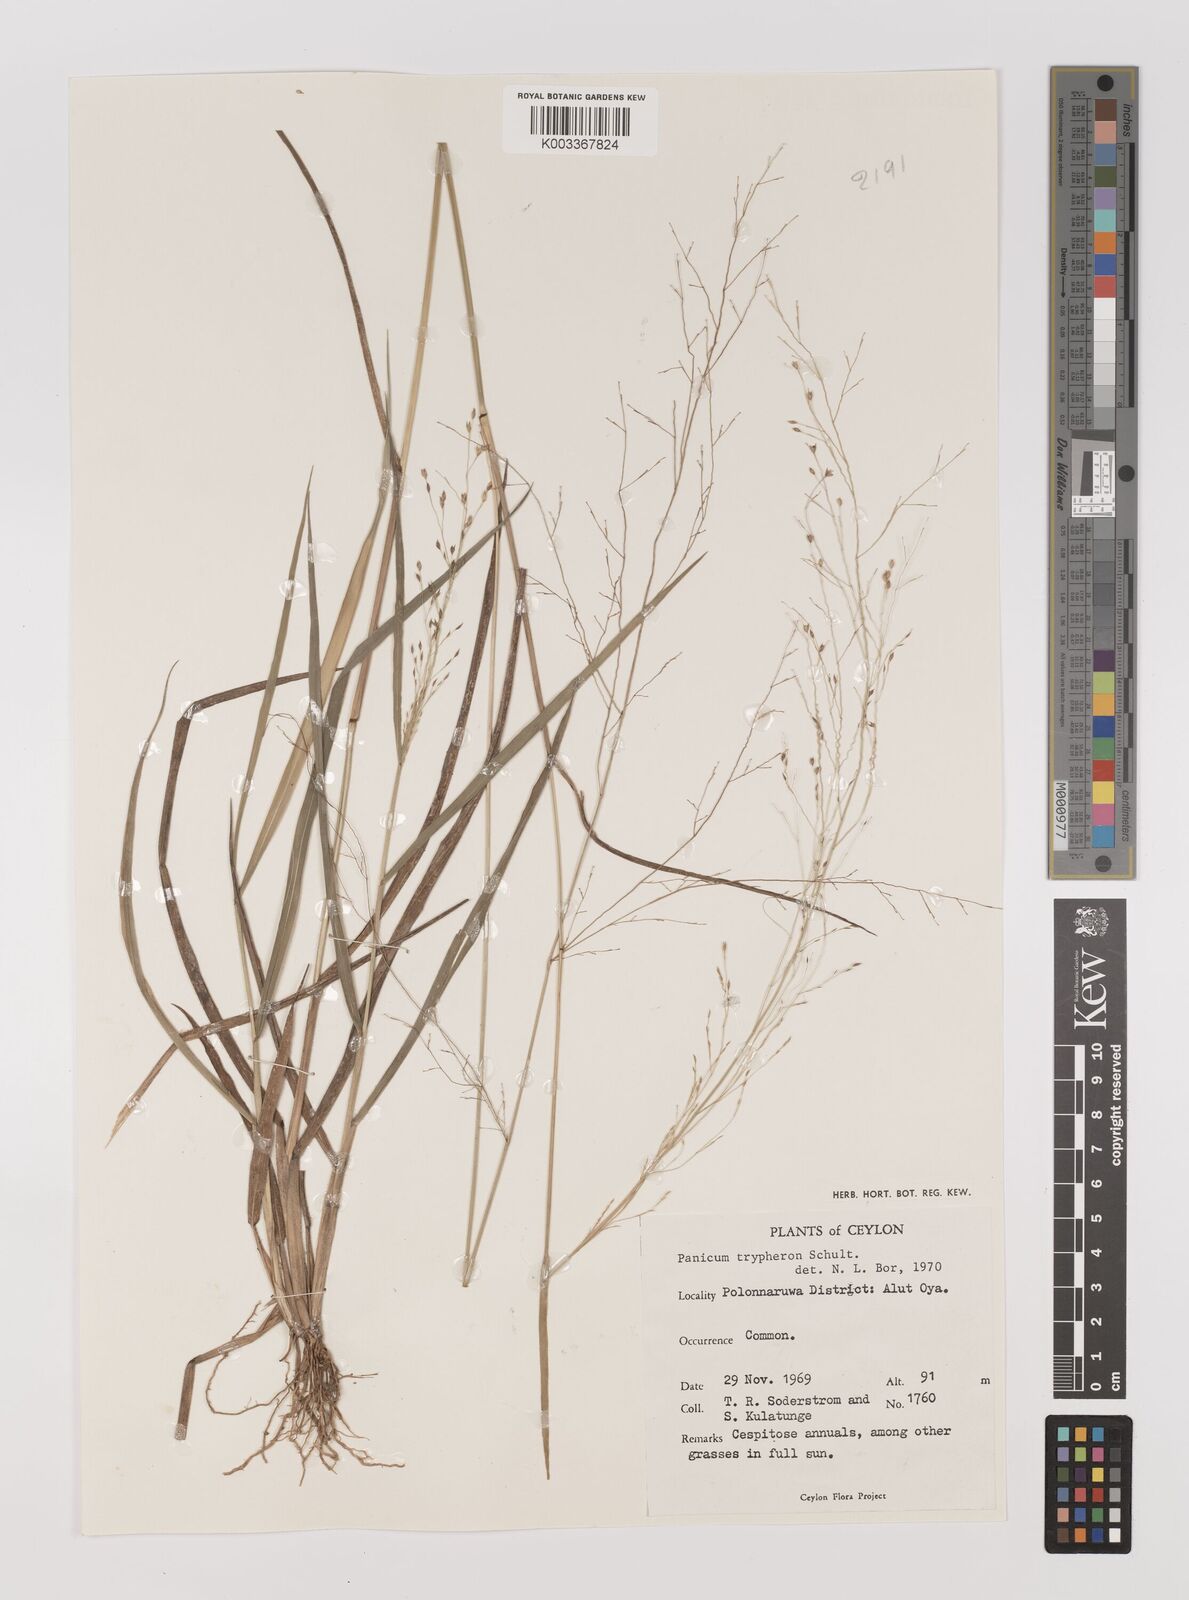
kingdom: Plantae
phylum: Tracheophyta
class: Liliopsida
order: Poales
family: Poaceae
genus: Panicum
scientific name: Panicum curviflorum
